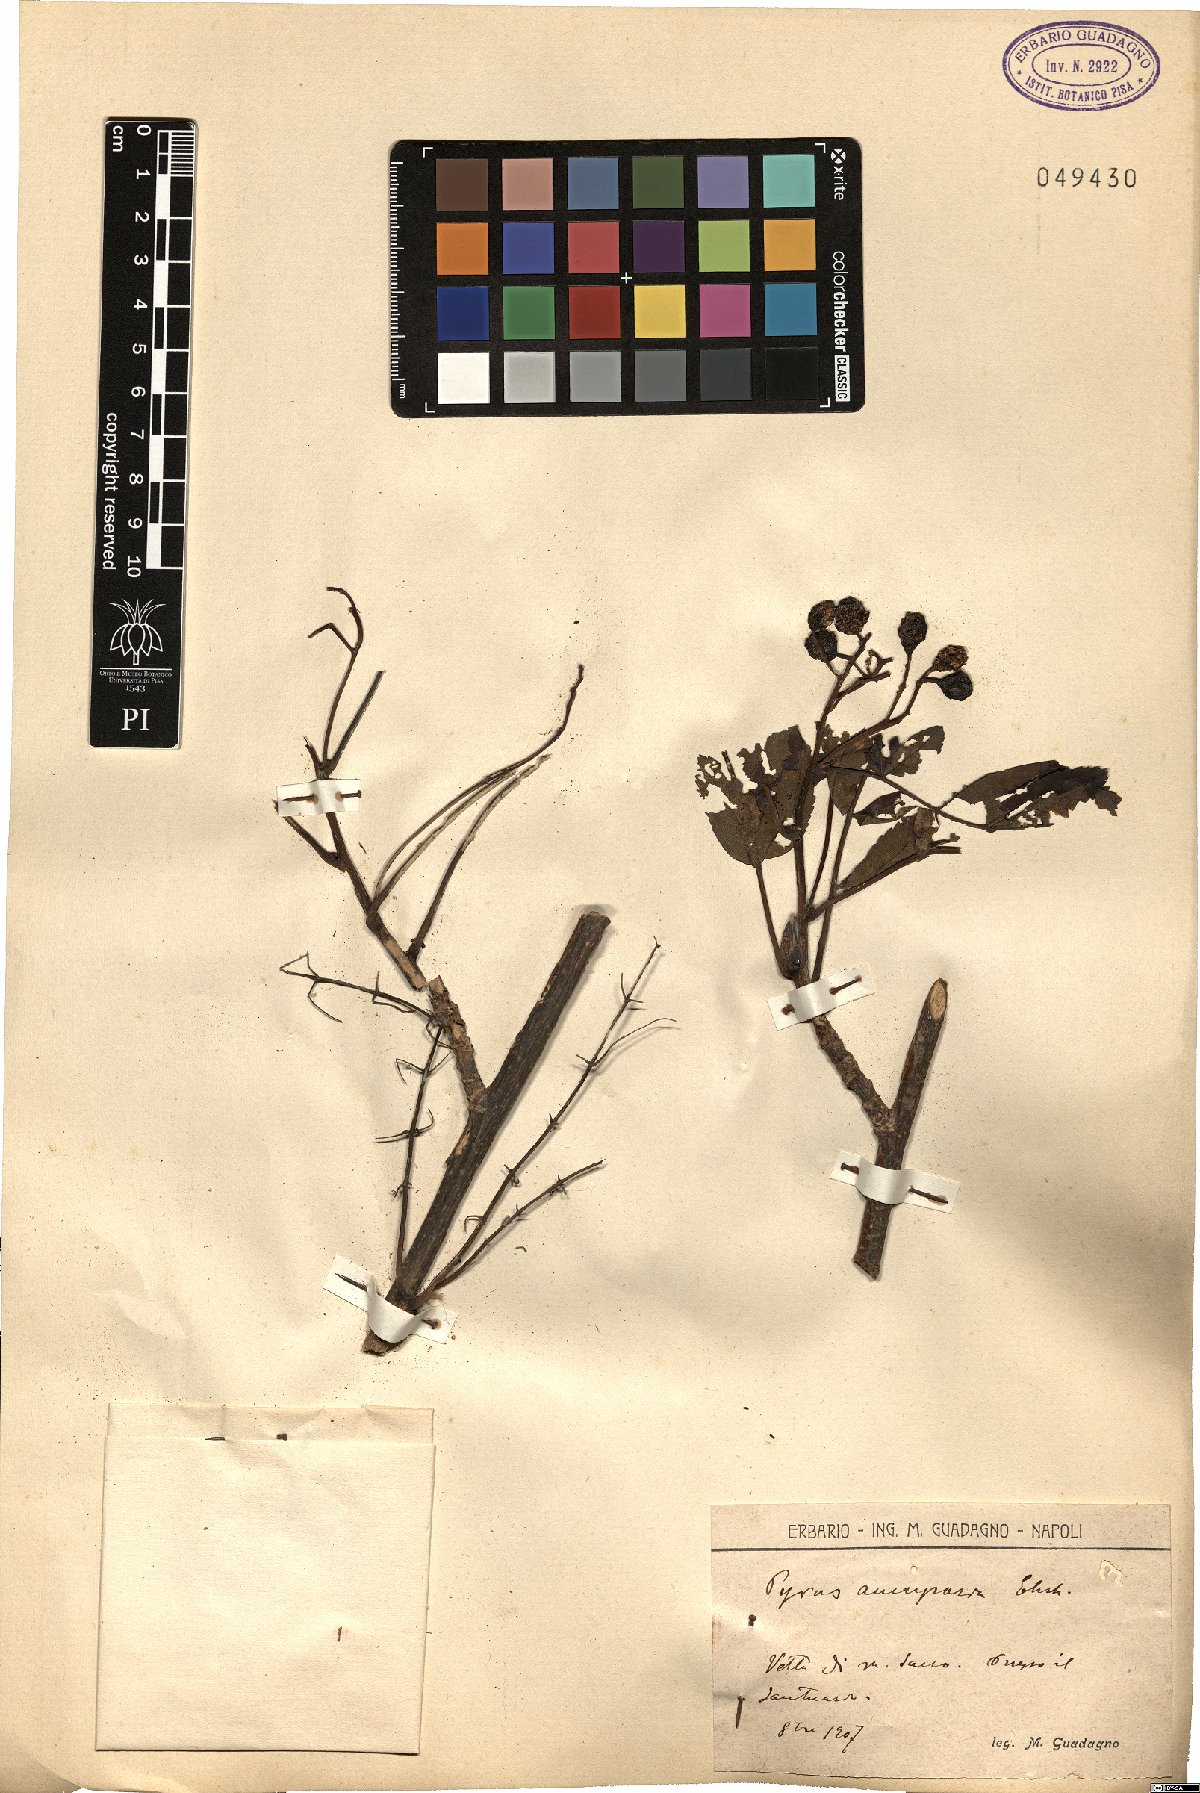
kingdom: Plantae
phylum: Tracheophyta
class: Magnoliopsida
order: Rosales
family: Rosaceae
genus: Sorbus
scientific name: Sorbus aucuparia
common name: Rowan
